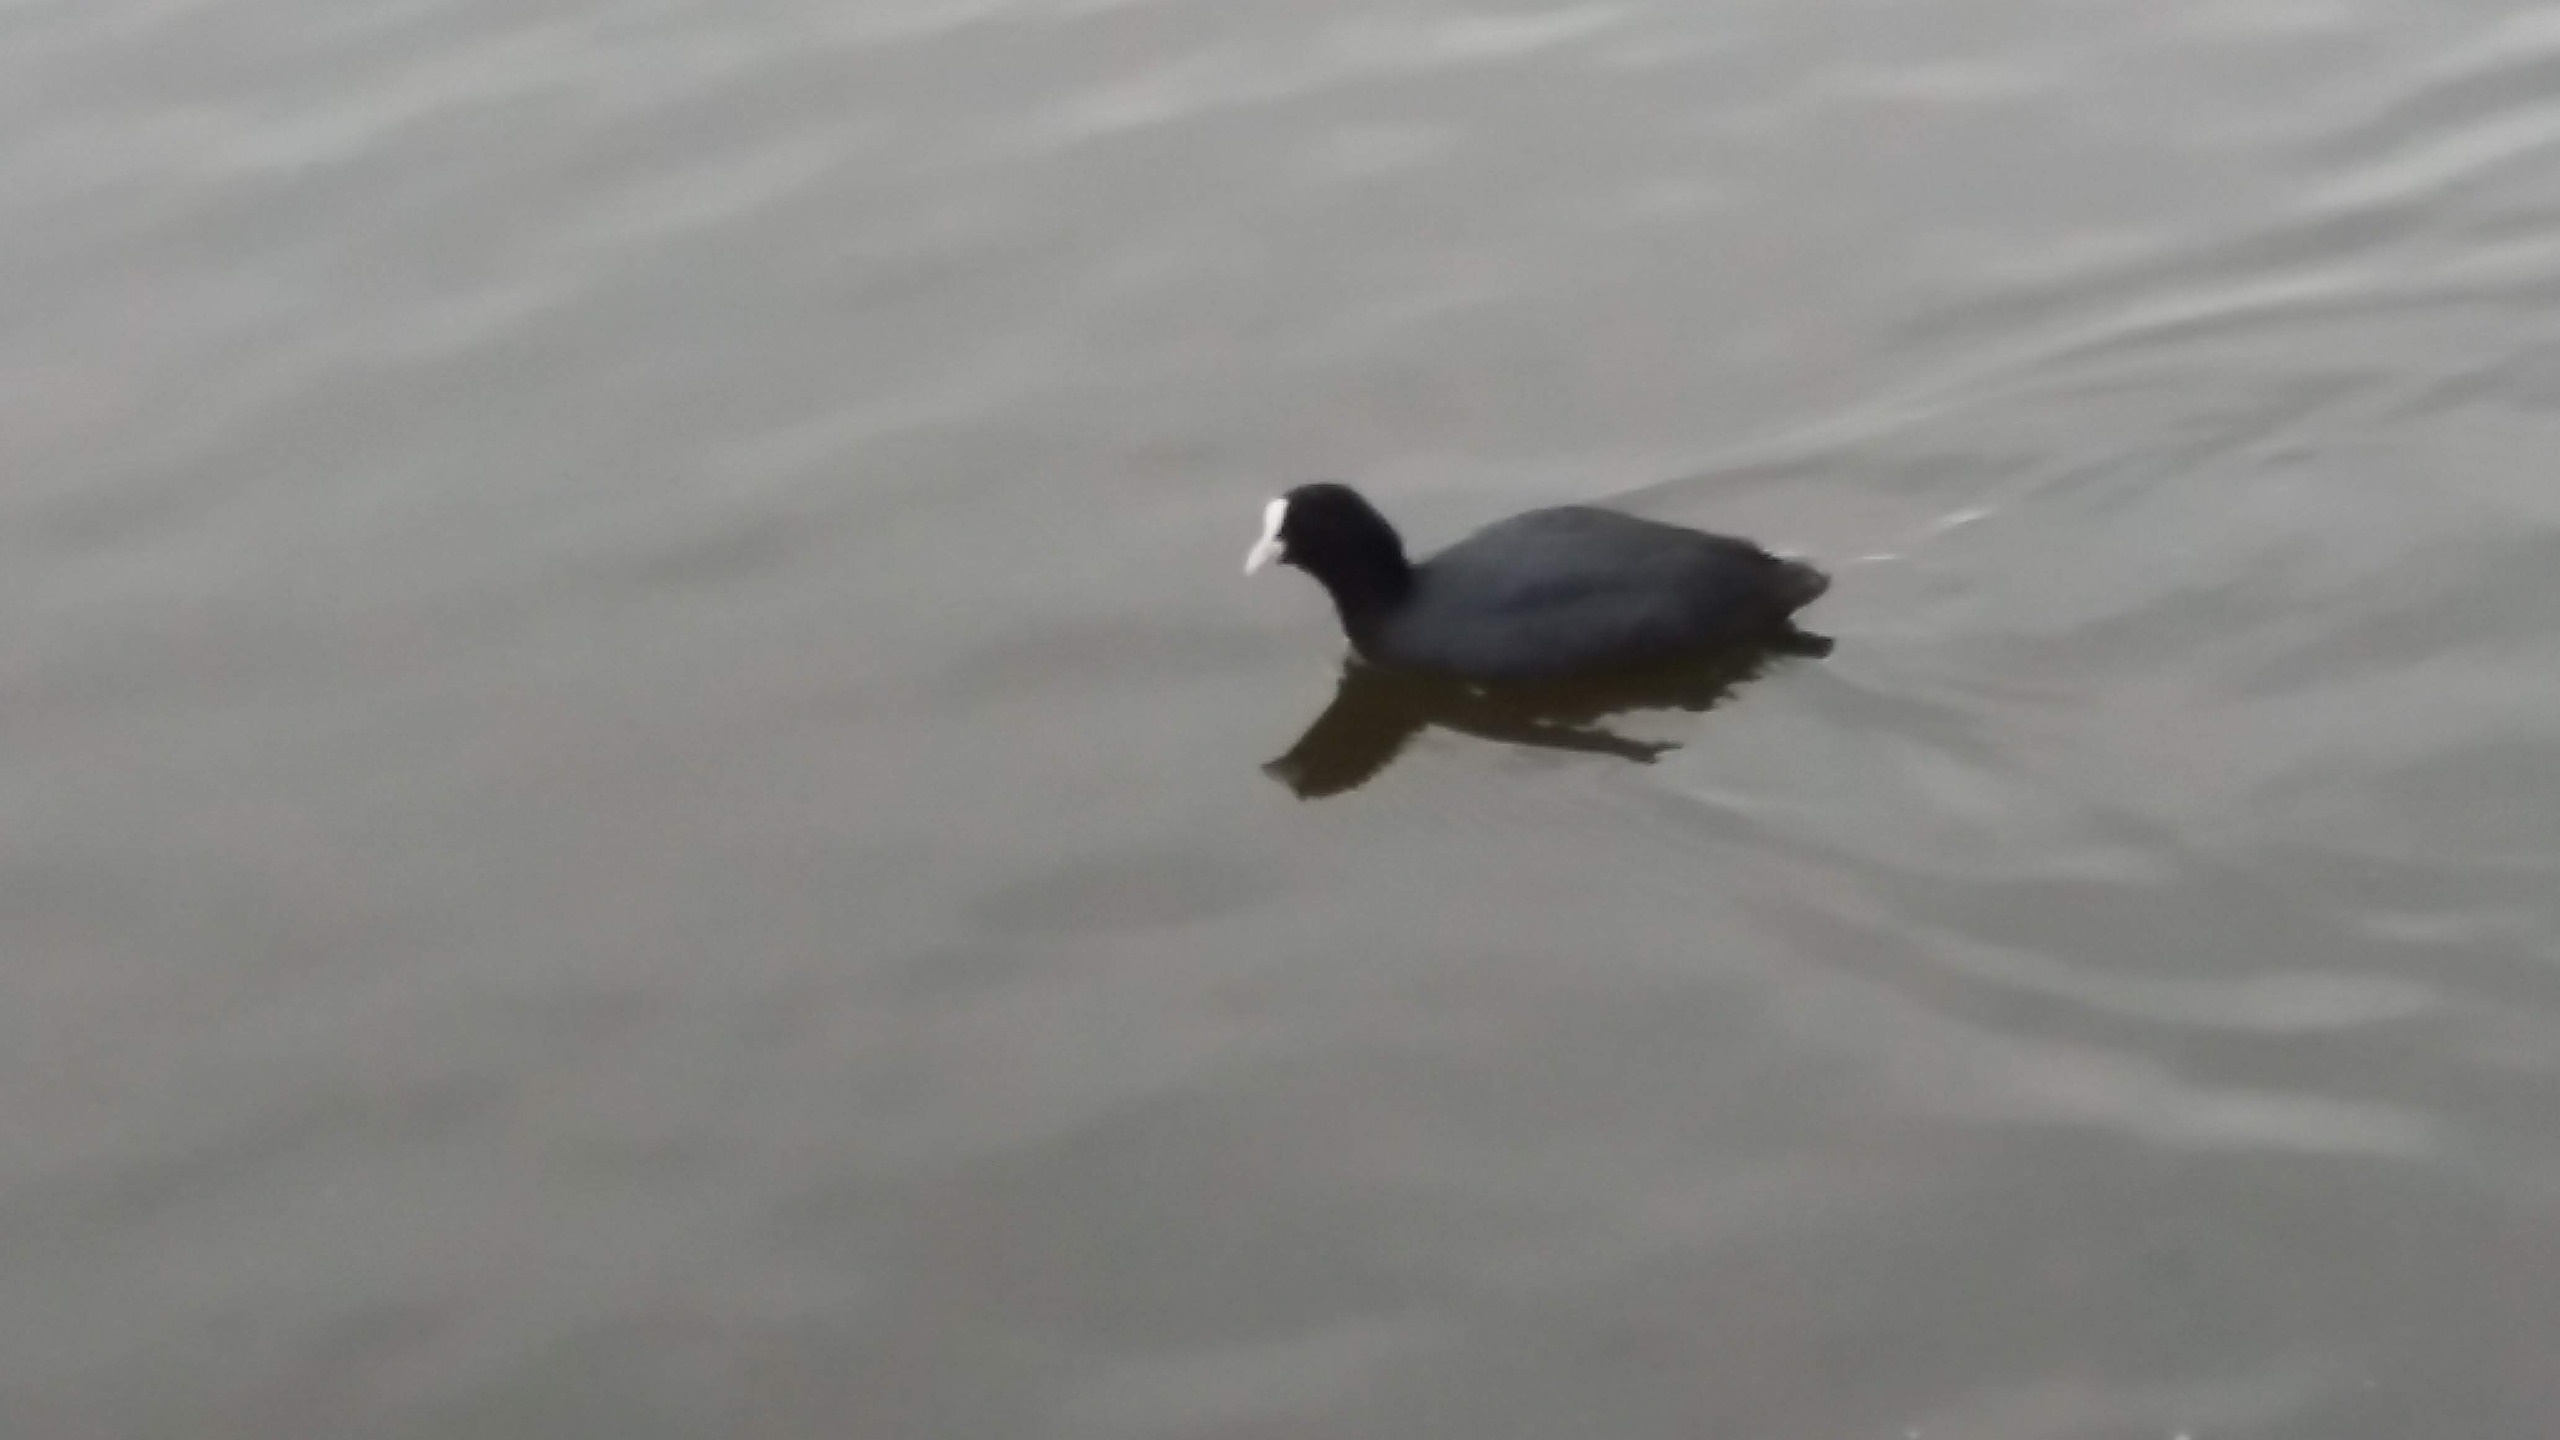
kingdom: Animalia
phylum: Chordata
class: Aves
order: Gruiformes
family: Rallidae
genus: Fulica
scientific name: Fulica atra
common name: Blishøne
